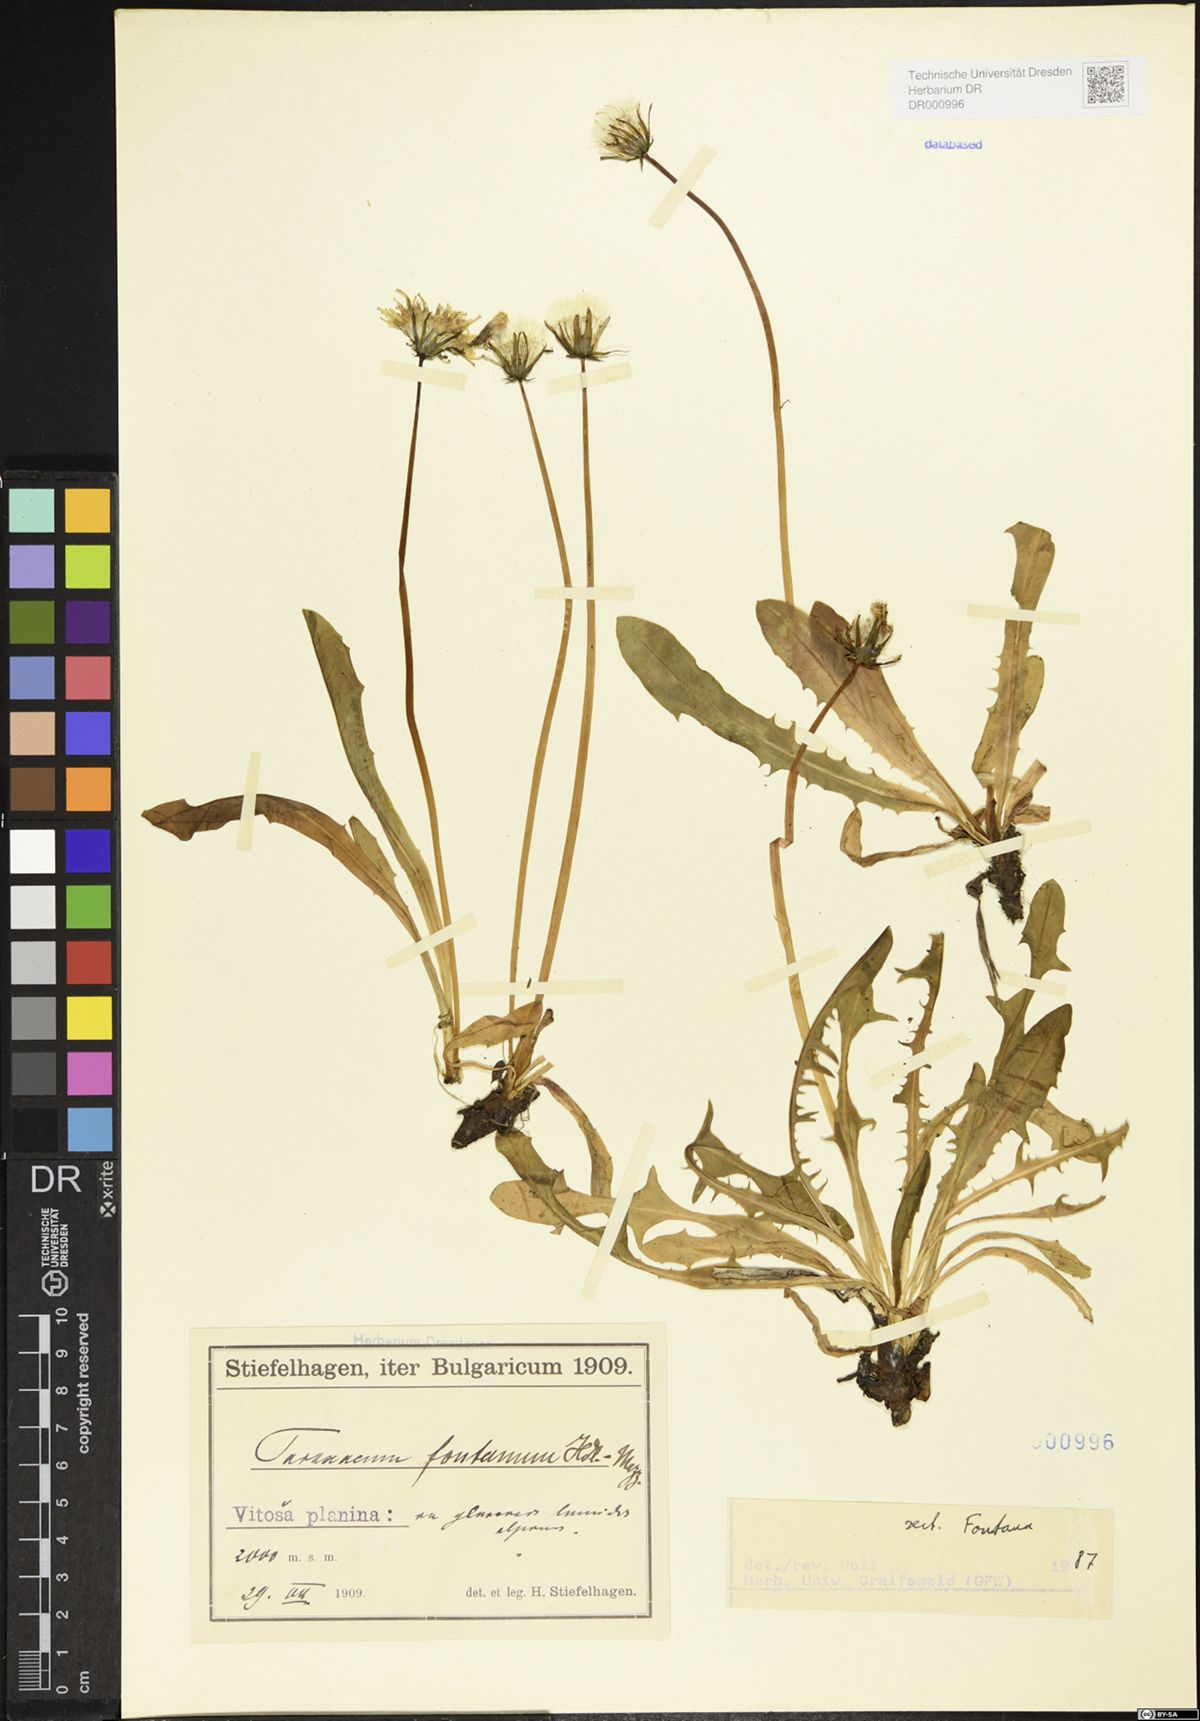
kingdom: Plantae
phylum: Tracheophyta
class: Magnoliopsida
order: Asterales
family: Asteraceae
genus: Taraxacum
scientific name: Taraxacum fontanum
